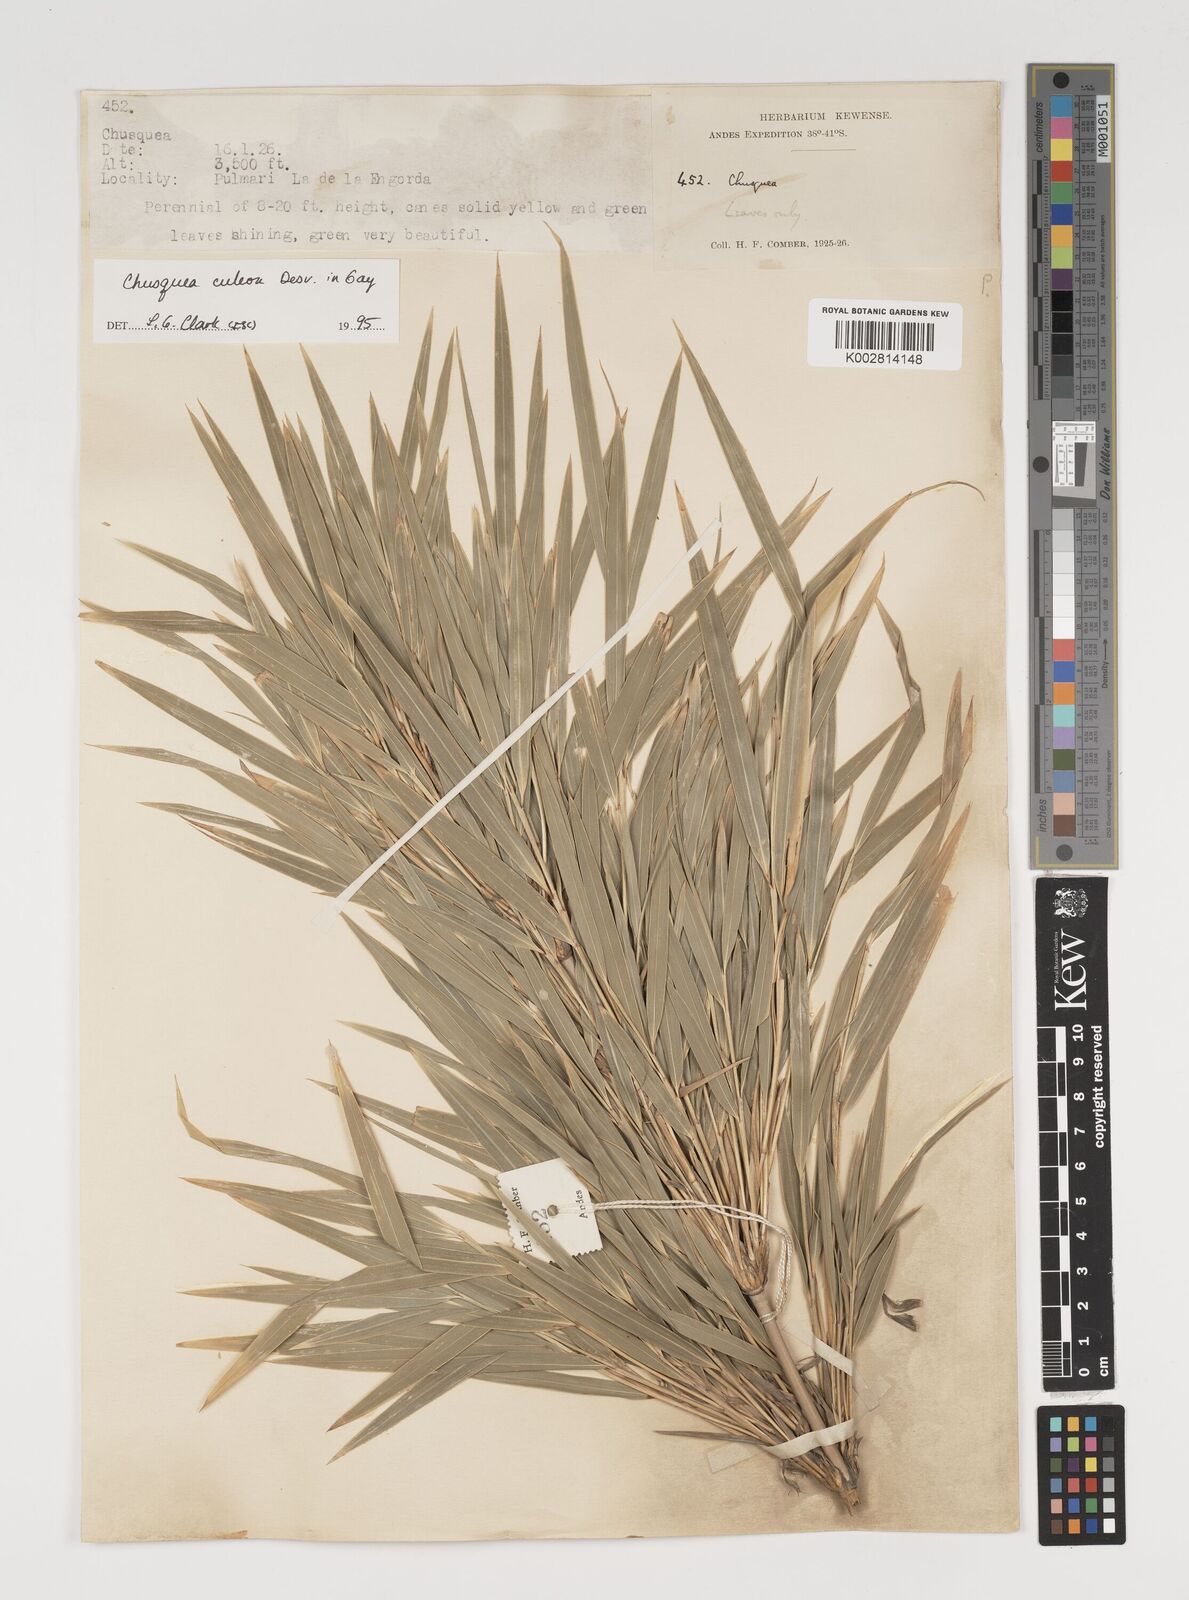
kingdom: Plantae
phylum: Tracheophyta
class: Liliopsida
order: Poales
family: Poaceae
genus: Chusquea
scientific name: Chusquea culeou
